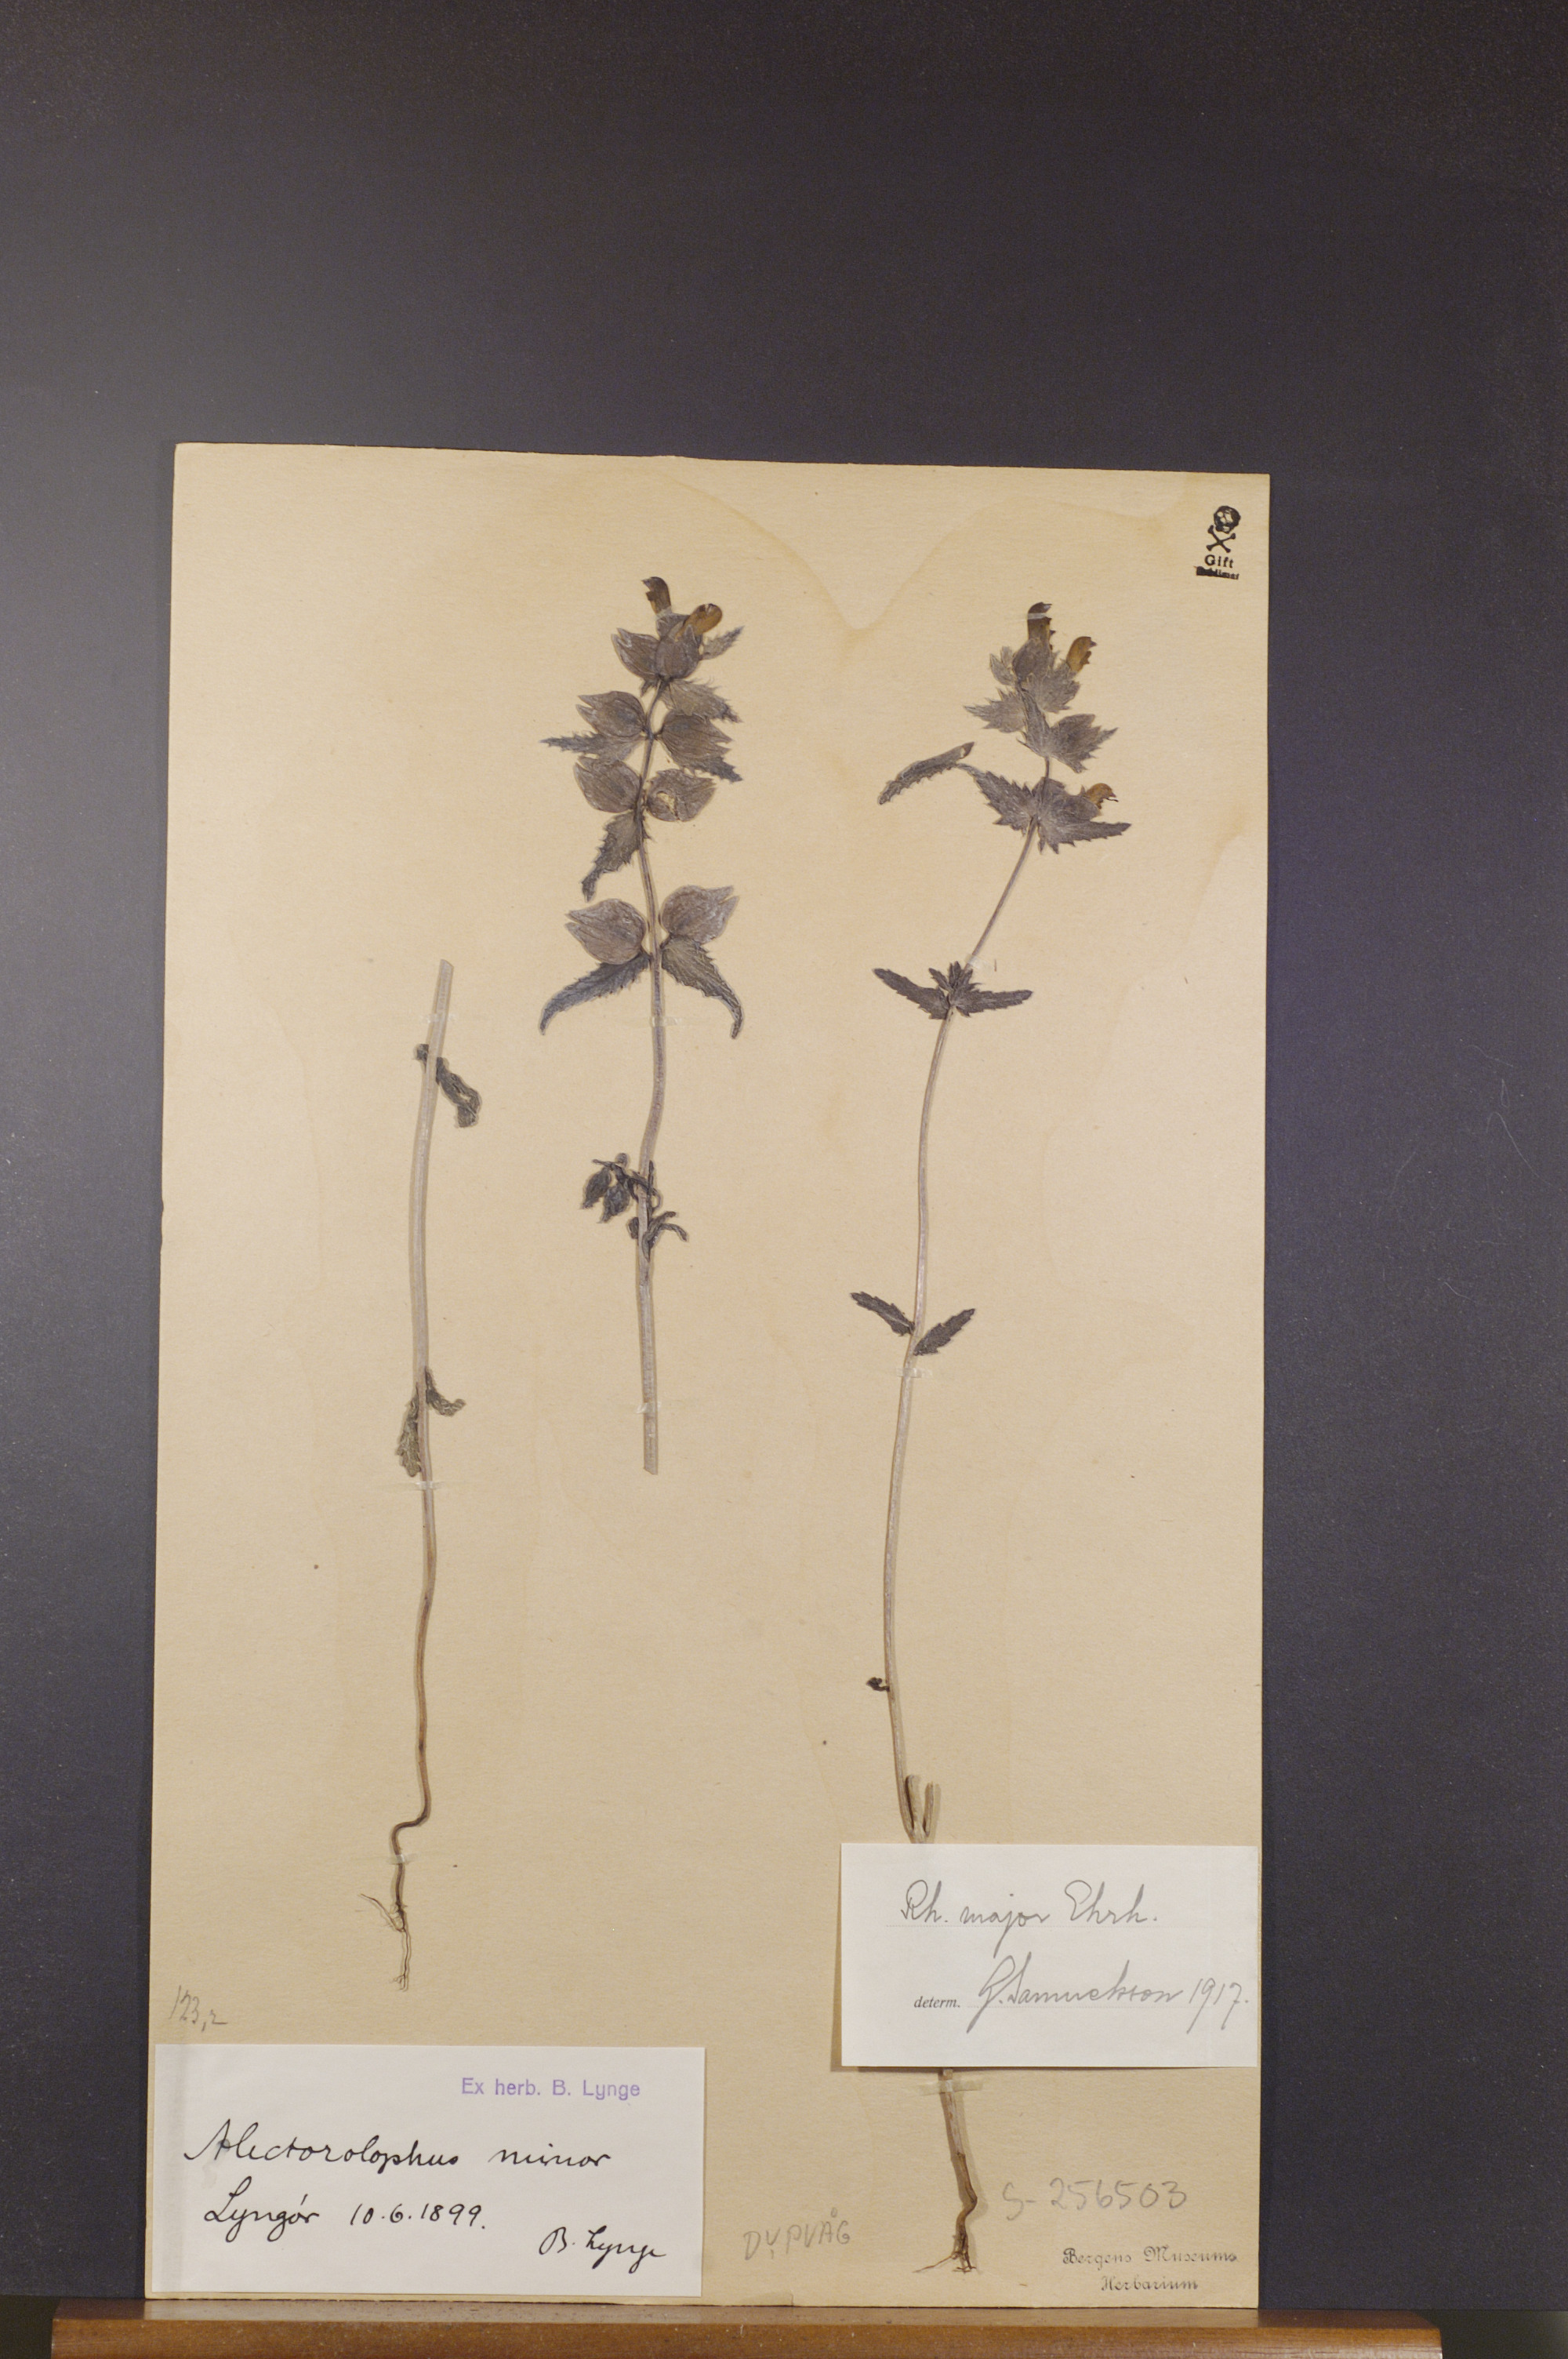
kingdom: Plantae
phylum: Tracheophyta
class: Magnoliopsida
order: Lamiales
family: Orobanchaceae
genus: Rhinanthus
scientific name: Rhinanthus serotinus
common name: Late-flowering yellow rattle
